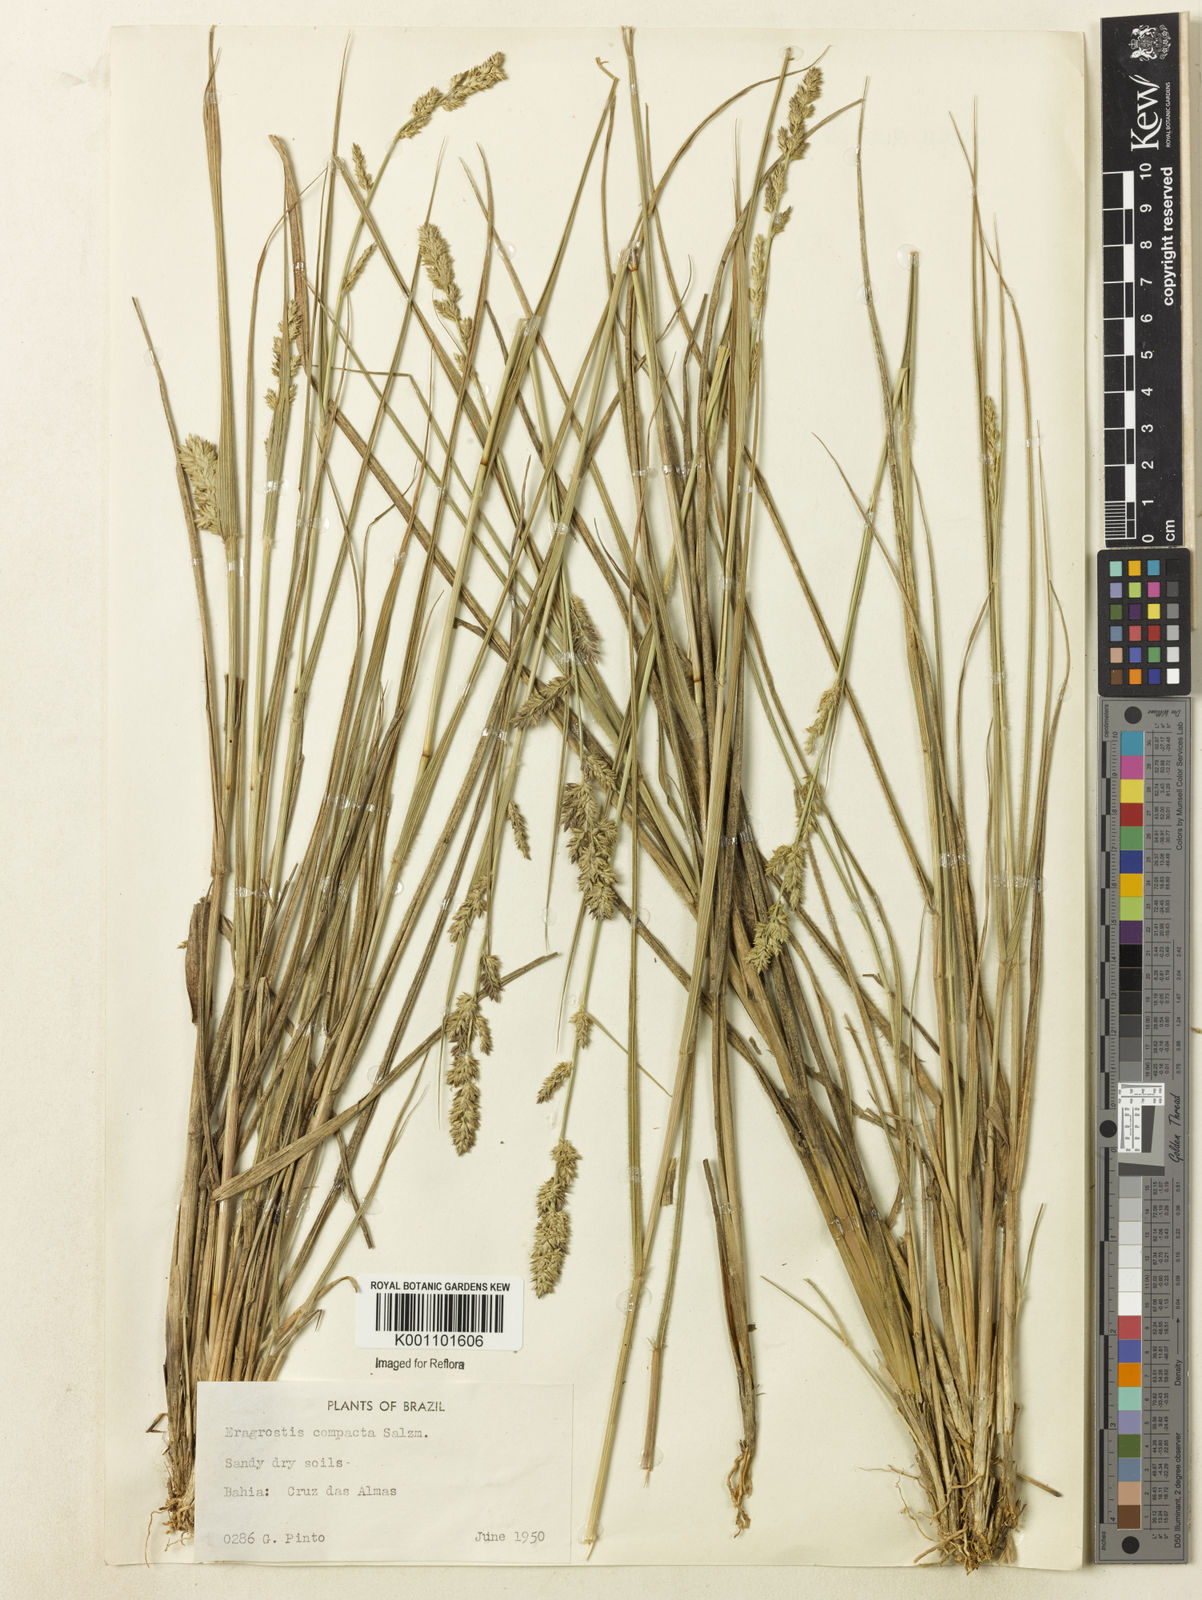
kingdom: Plantae
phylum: Tracheophyta
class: Liliopsida
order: Poales
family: Poaceae
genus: Eragrostis
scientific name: Eragrostis petrensis
